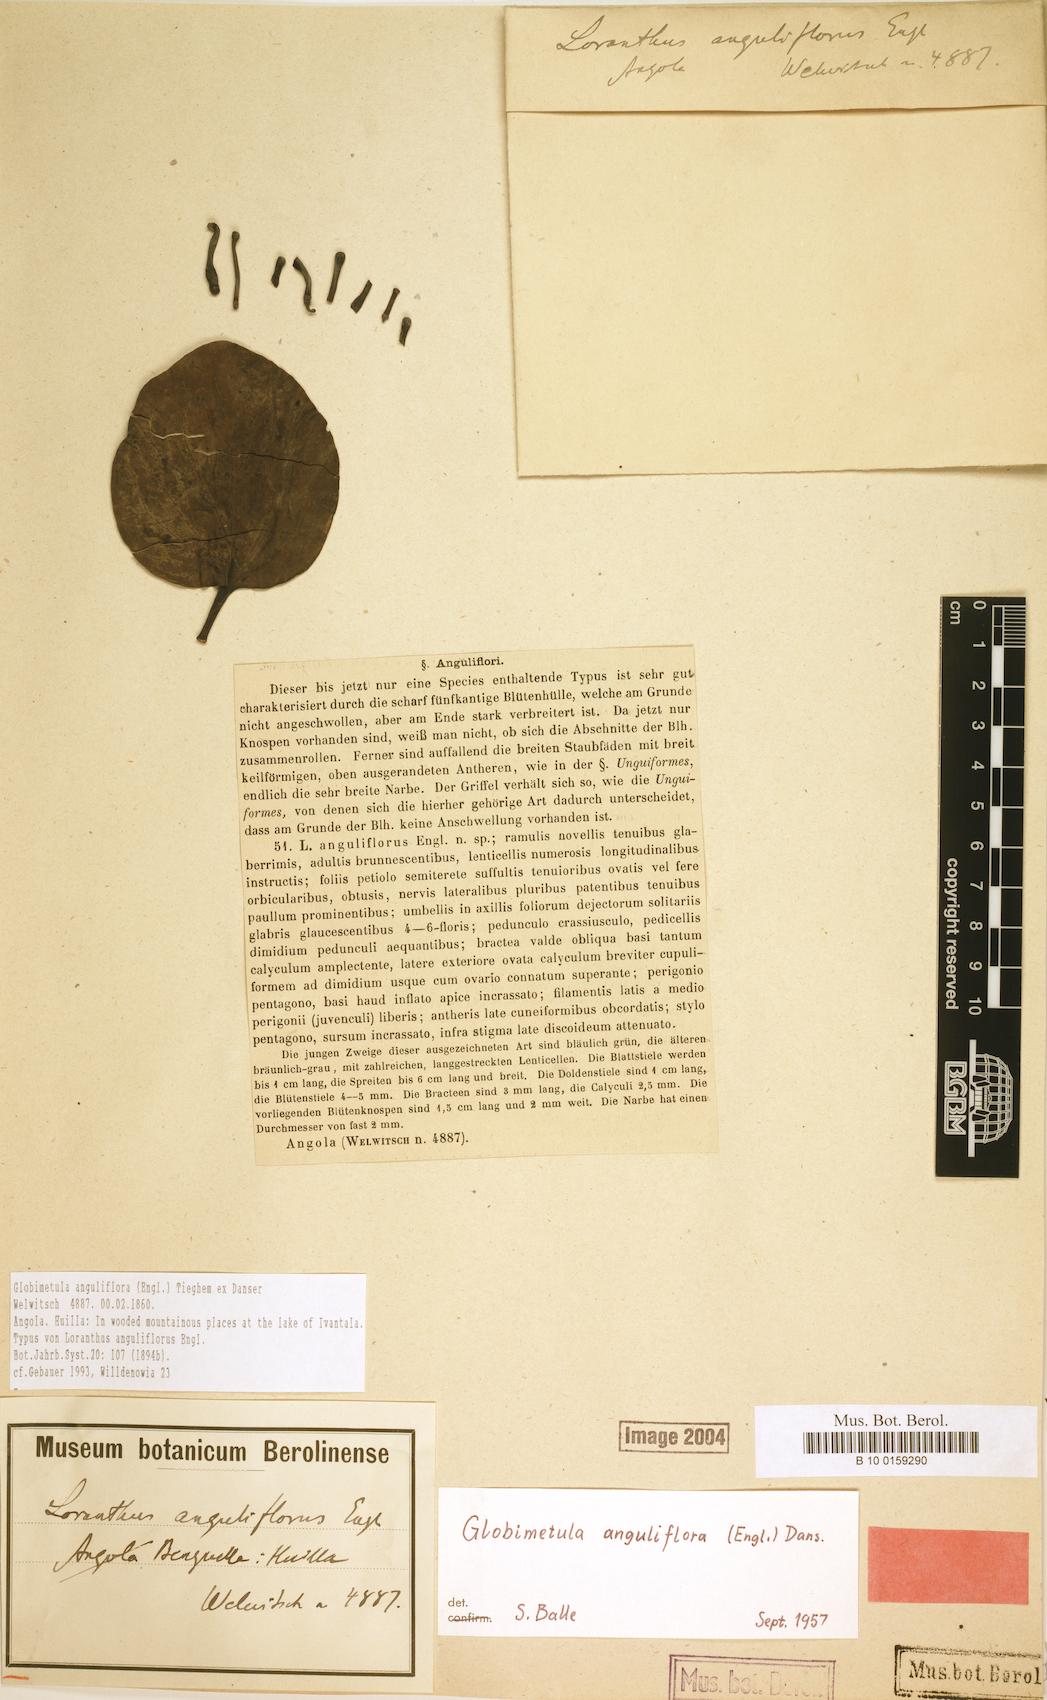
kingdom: Plantae
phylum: Tracheophyta
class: Magnoliopsida
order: Santalales
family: Loranthaceae
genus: Globimetula
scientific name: Globimetula anguliflora
